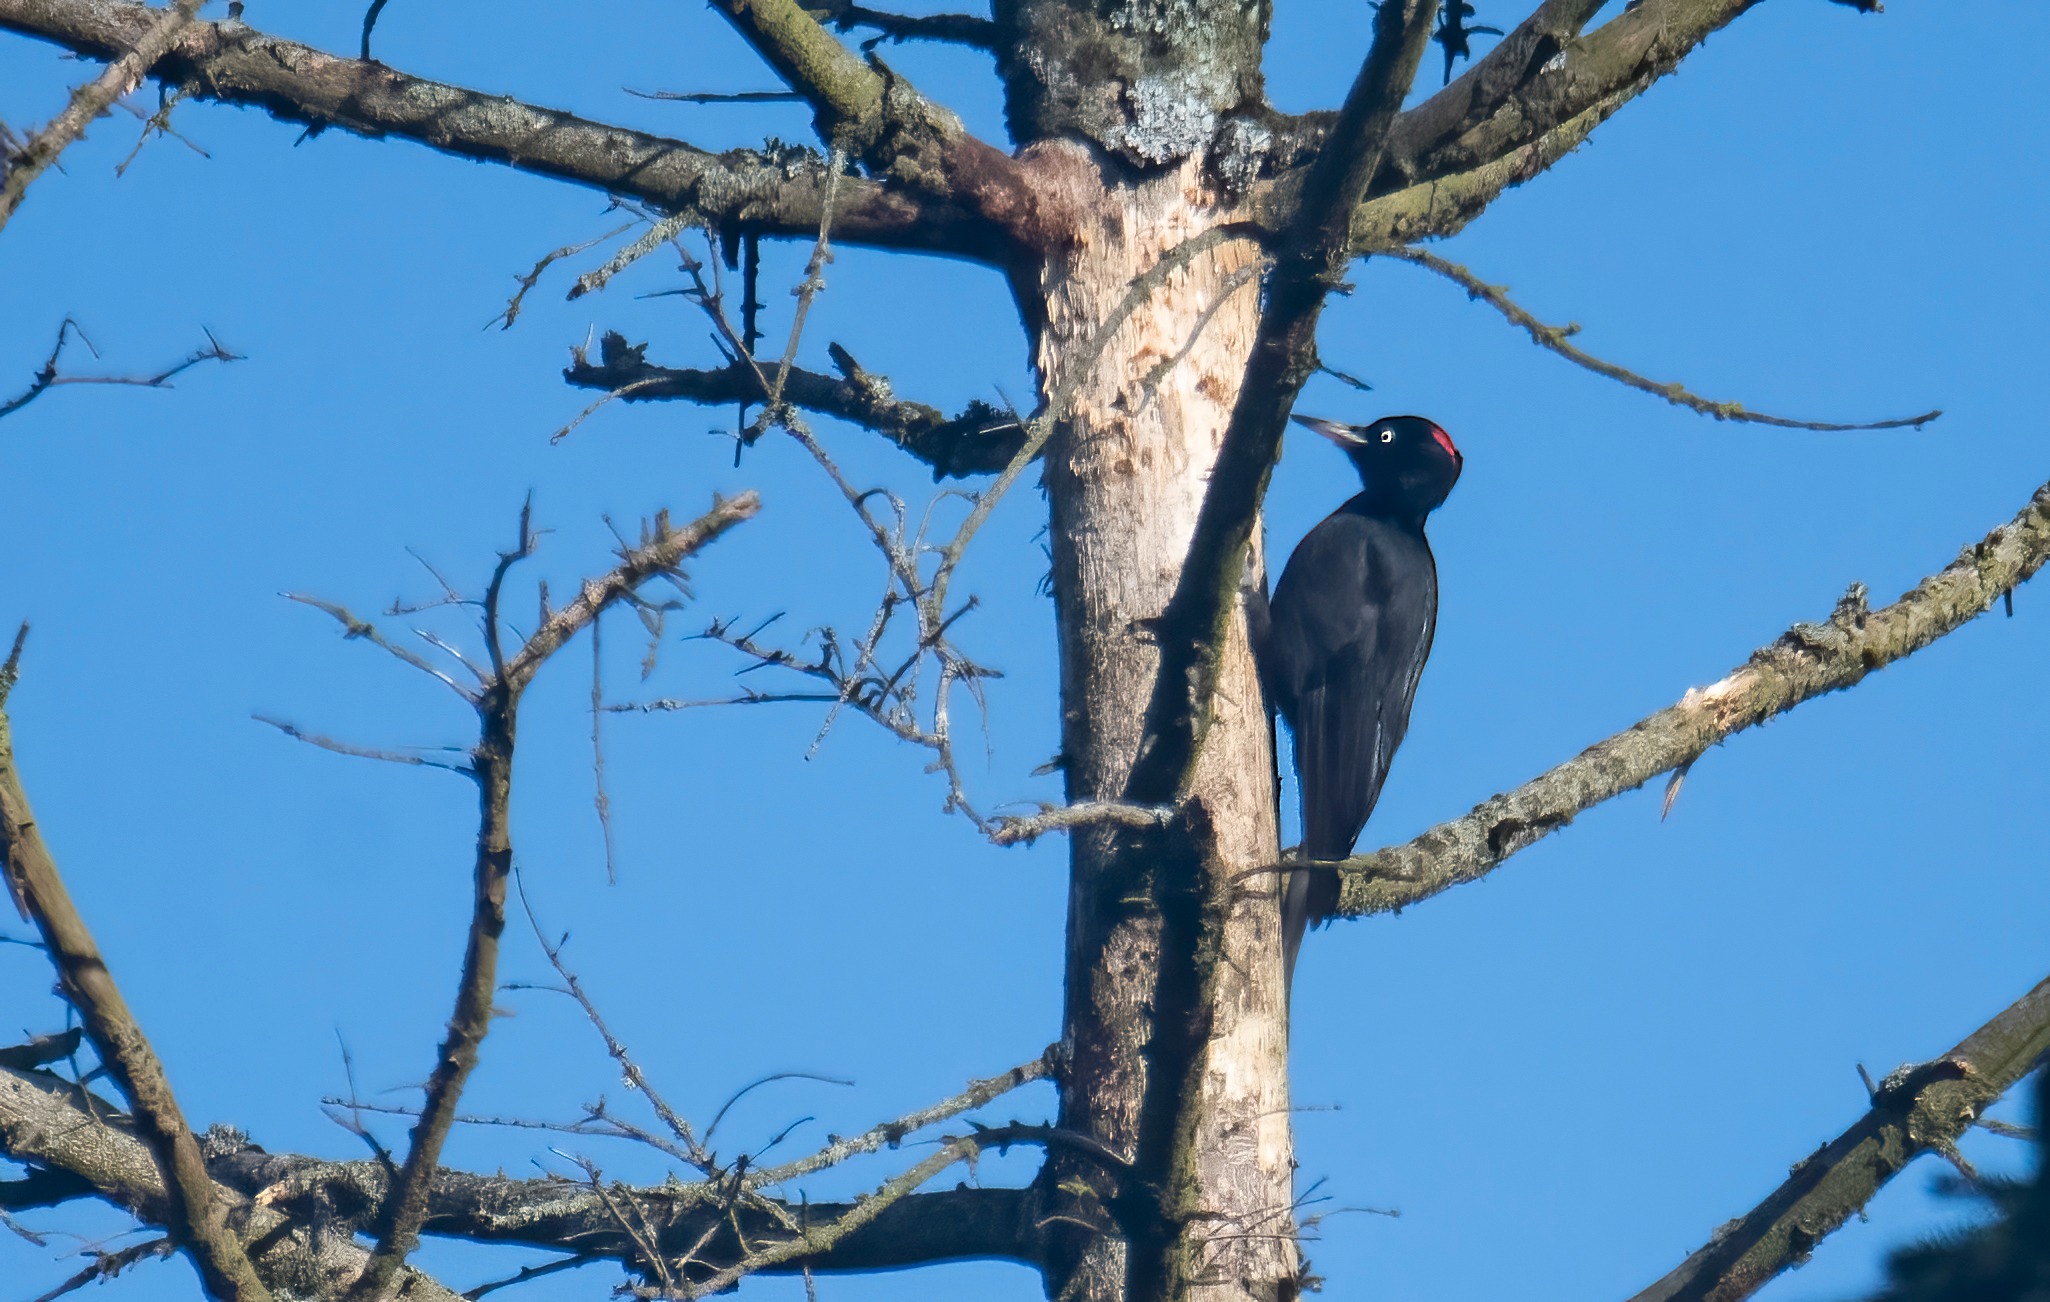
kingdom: Animalia
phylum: Chordata
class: Aves
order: Piciformes
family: Picidae
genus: Dryocopus
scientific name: Dryocopus martius
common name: Sortspætte
